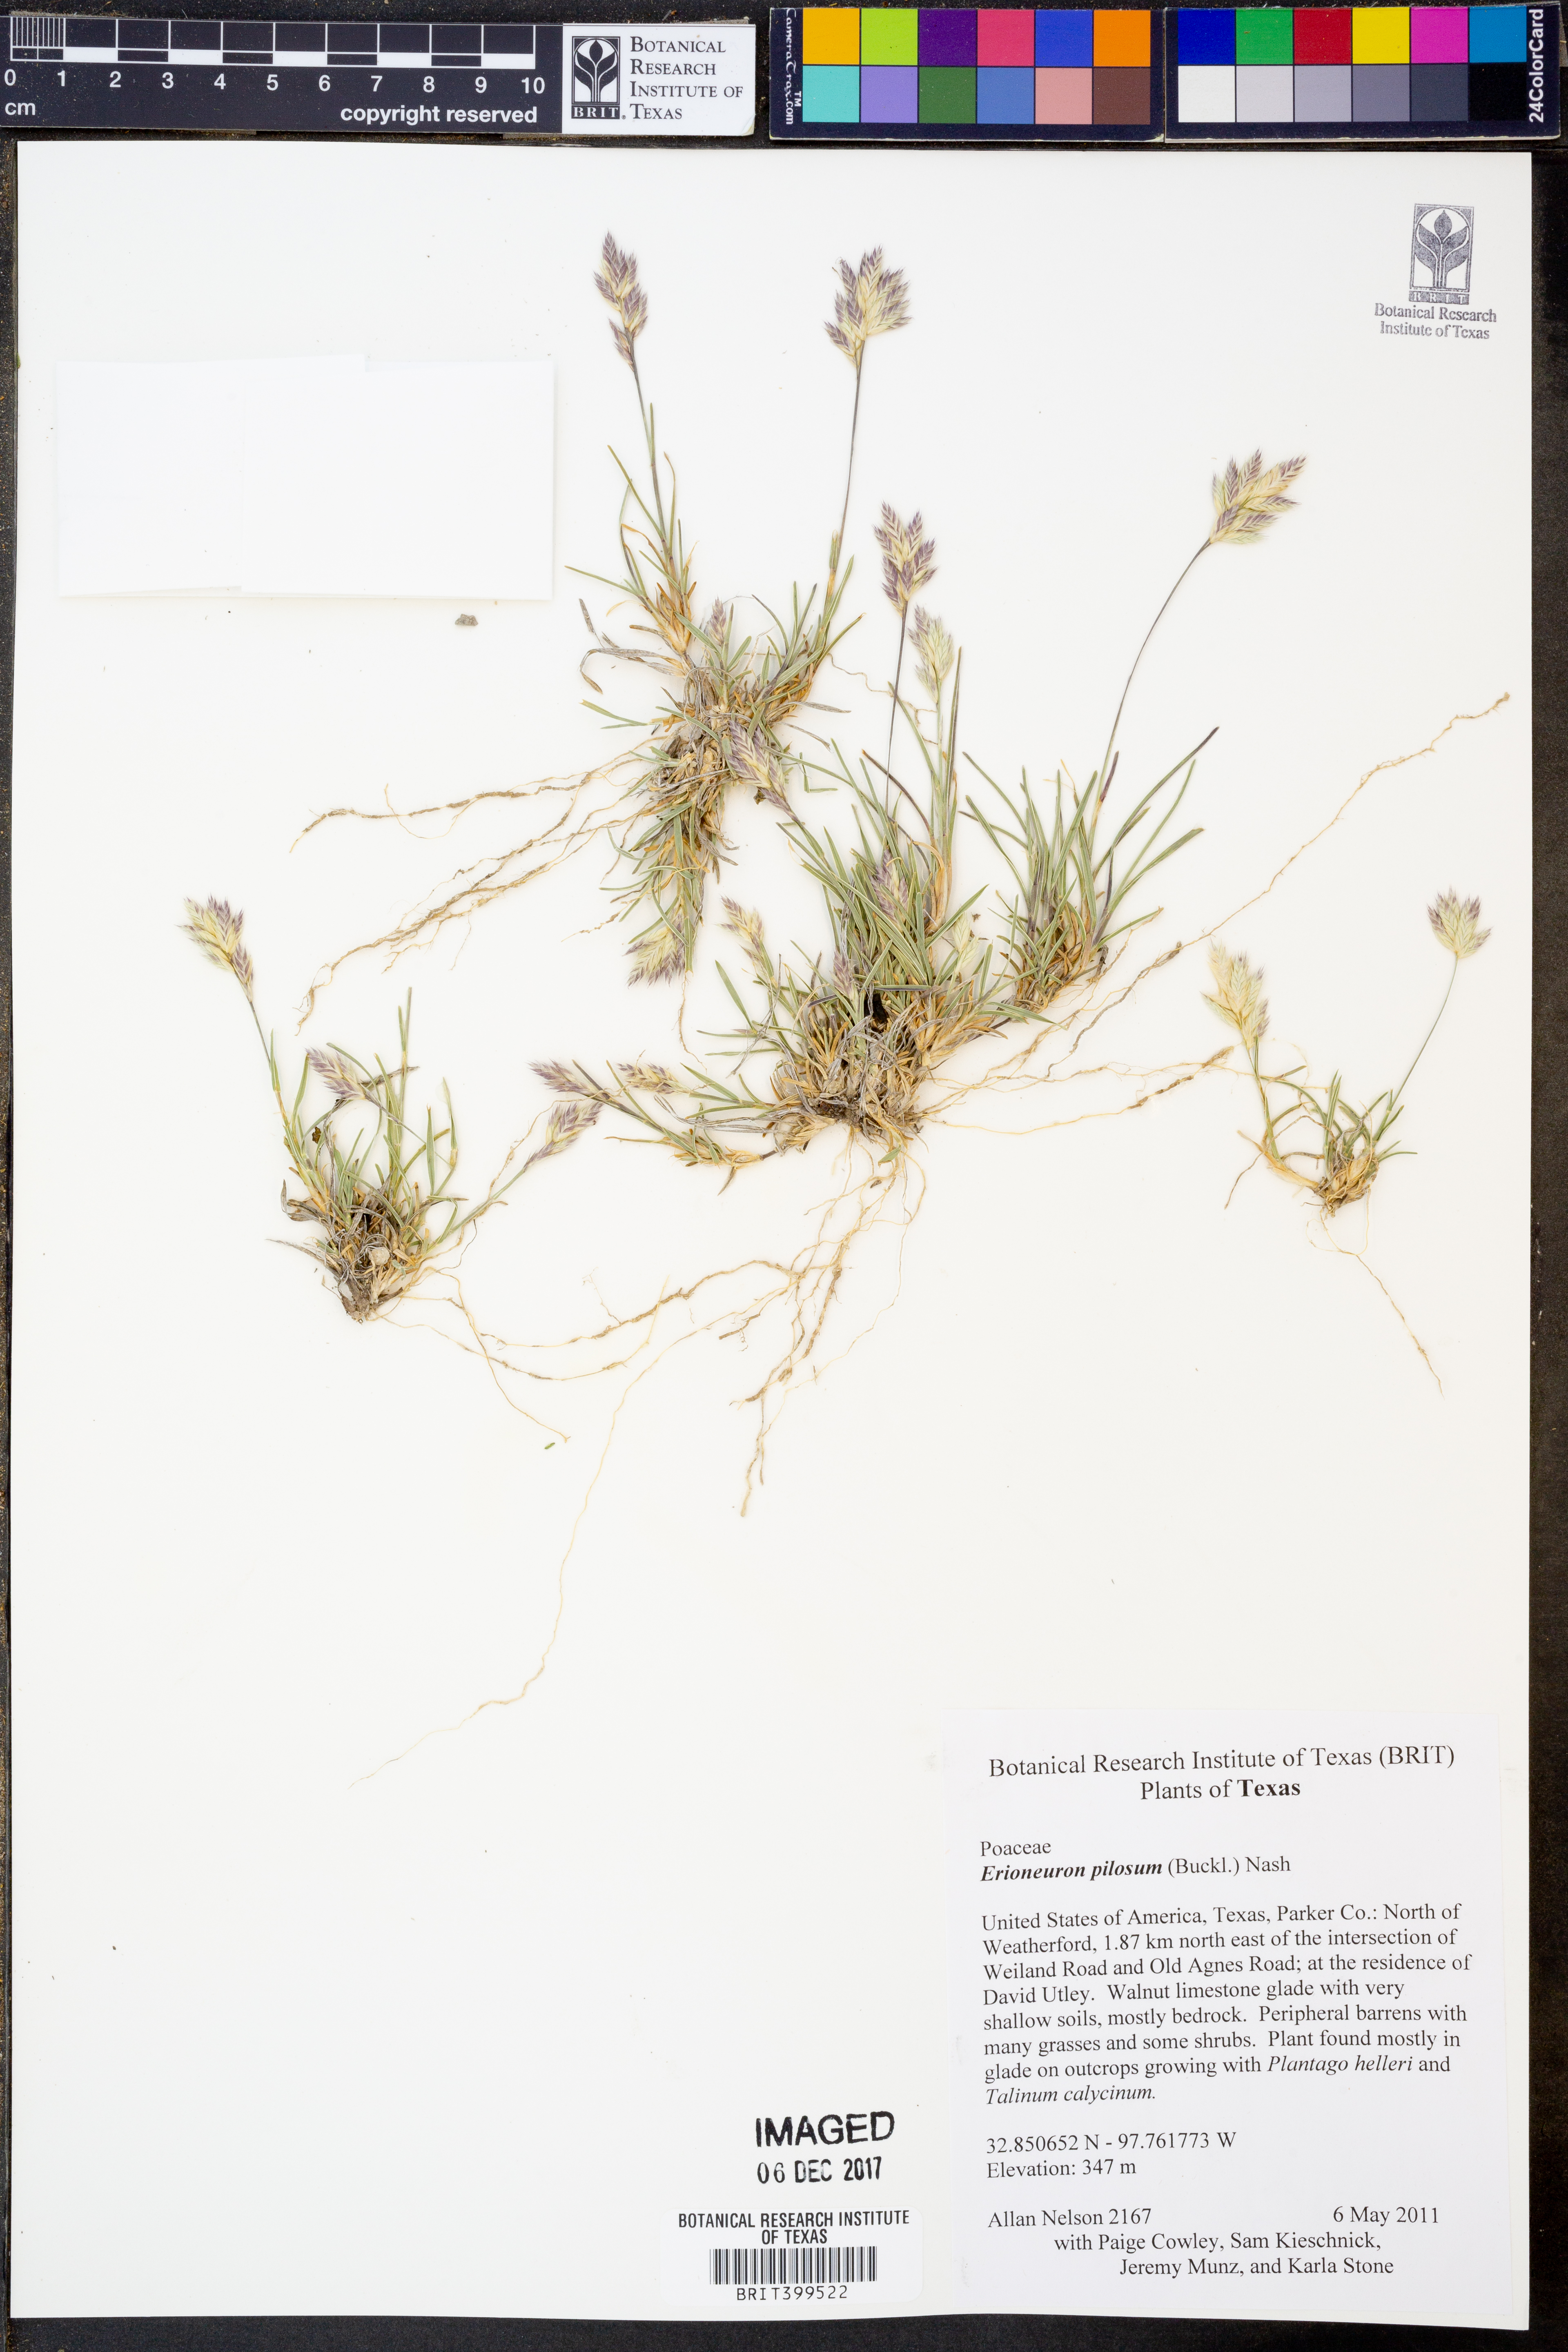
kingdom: Plantae
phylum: Tracheophyta
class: Liliopsida
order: Poales
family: Poaceae
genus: Erioneuron
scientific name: Erioneuron pilosum
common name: Hairy woolly grass
